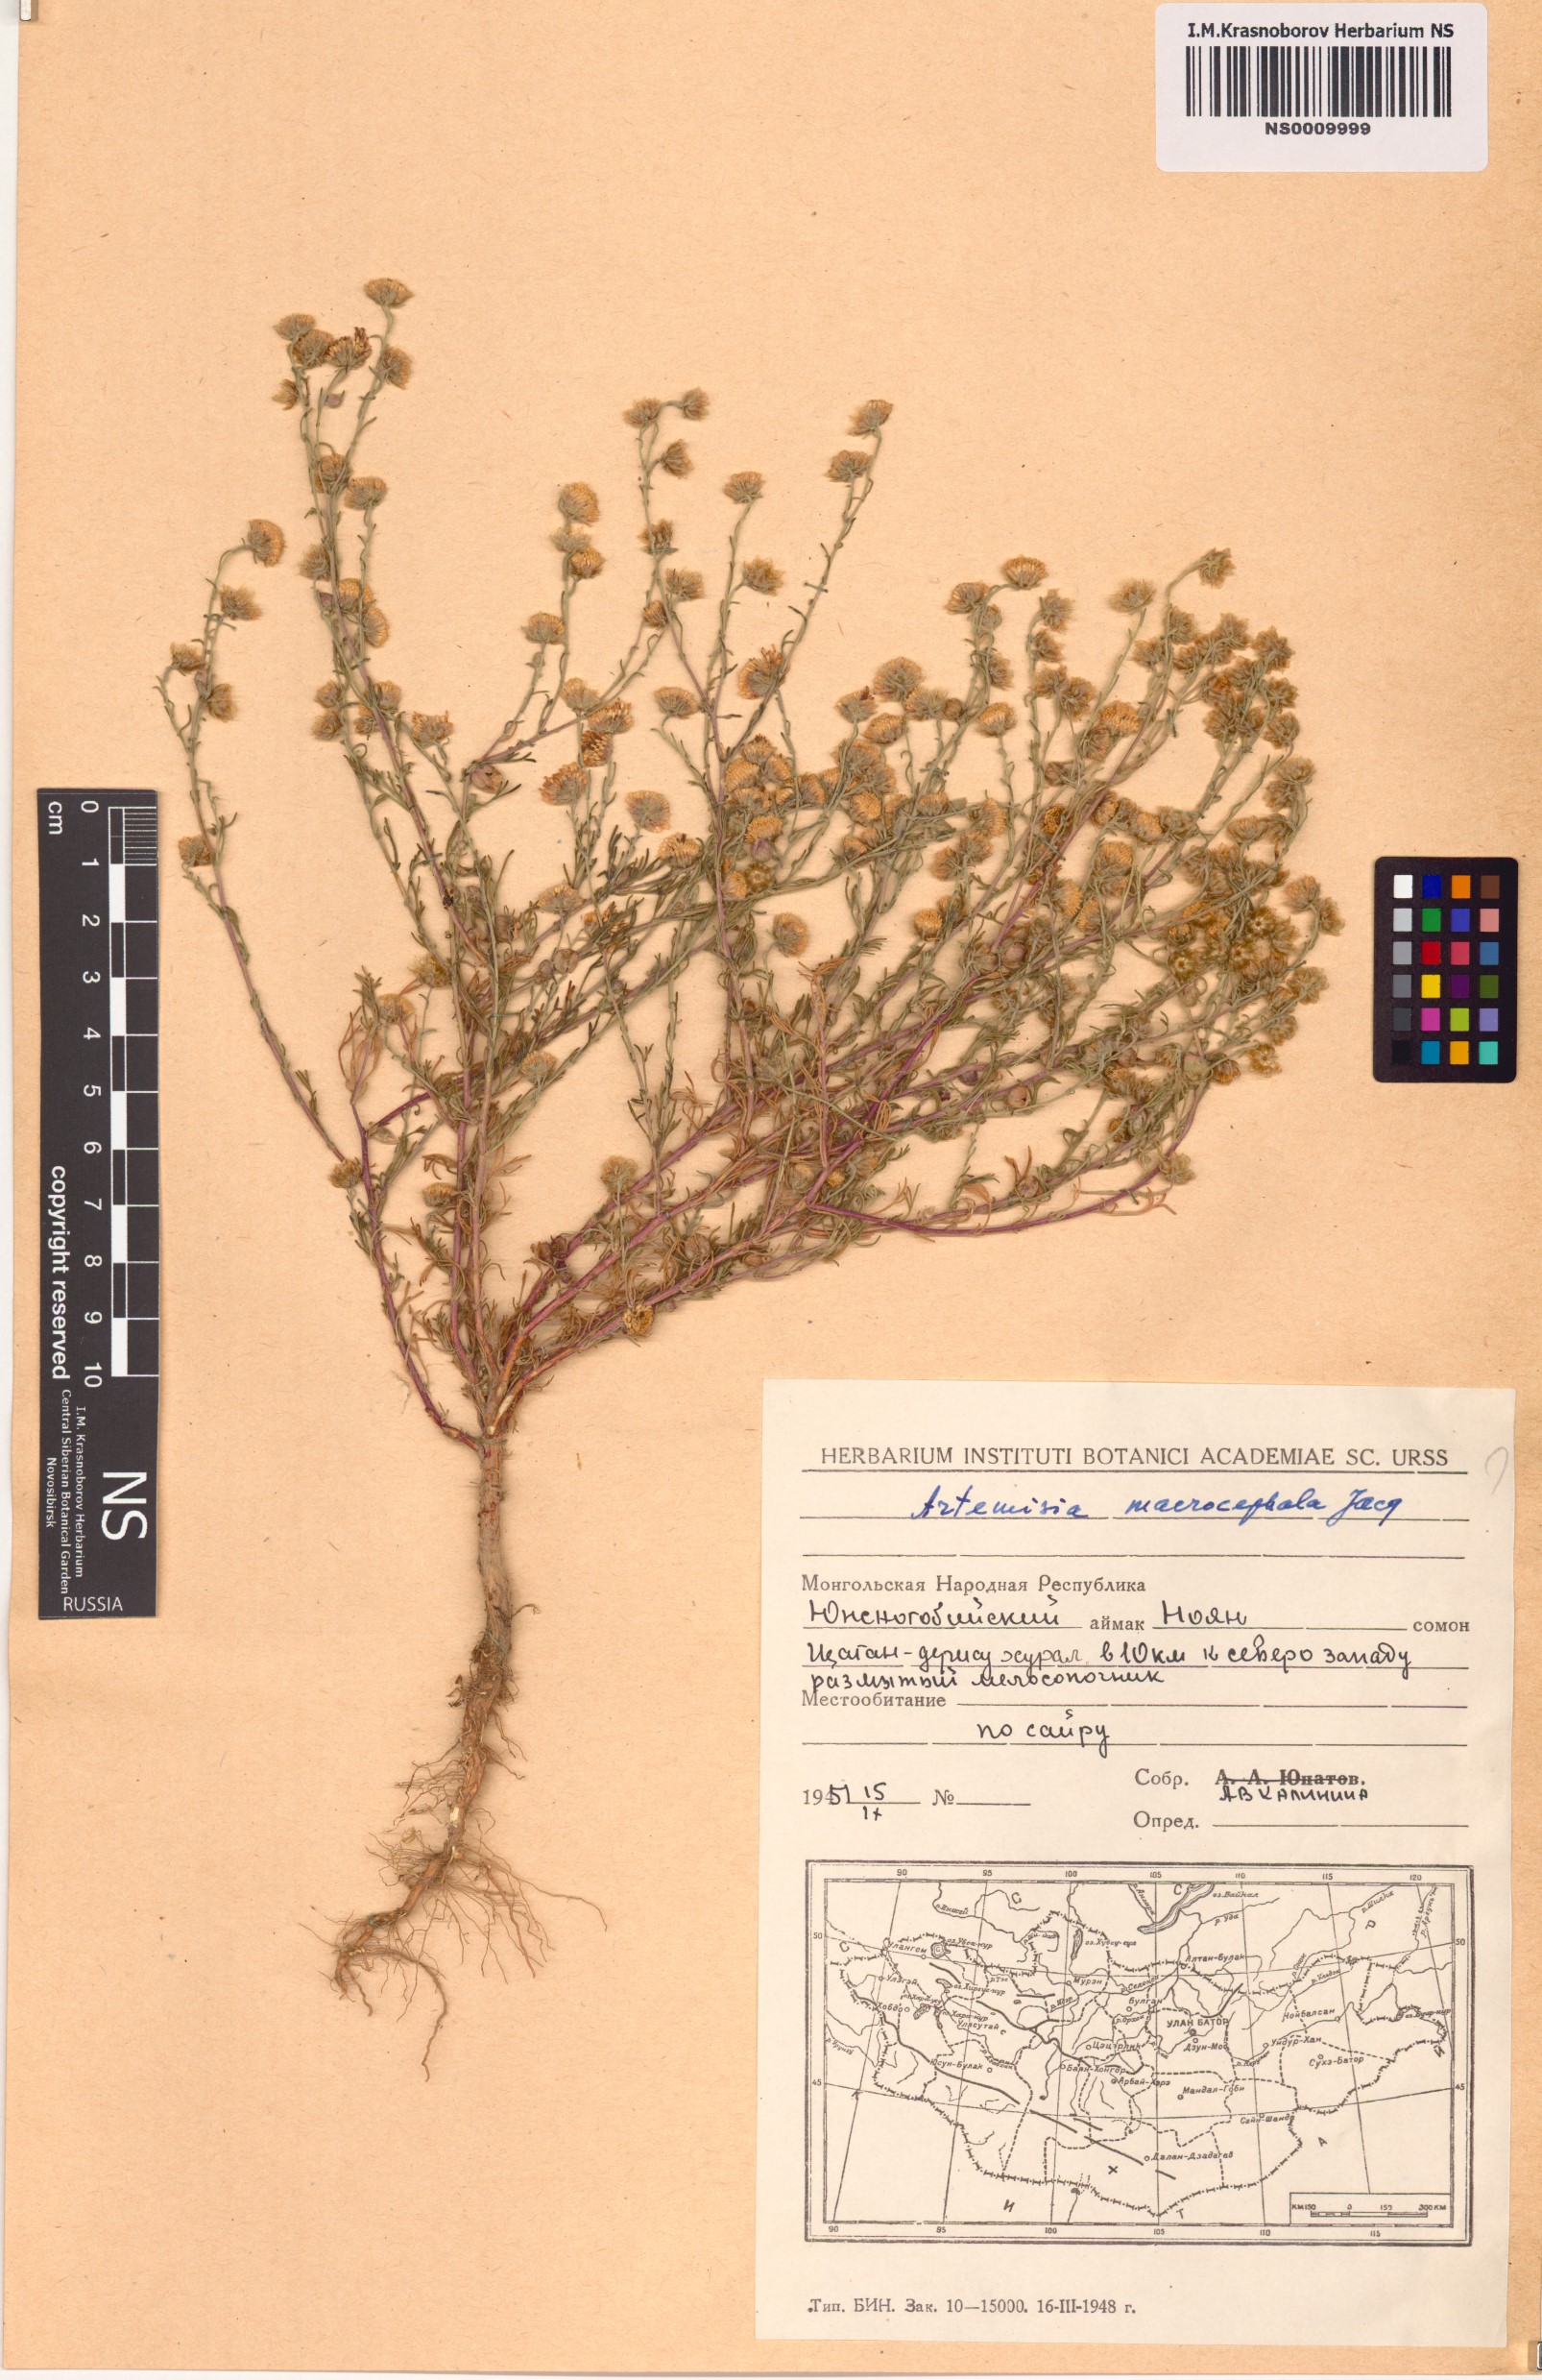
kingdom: Plantae
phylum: Tracheophyta
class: Magnoliopsida
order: Asterales
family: Asteraceae
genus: Artemisia
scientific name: Artemisia macrocephala
